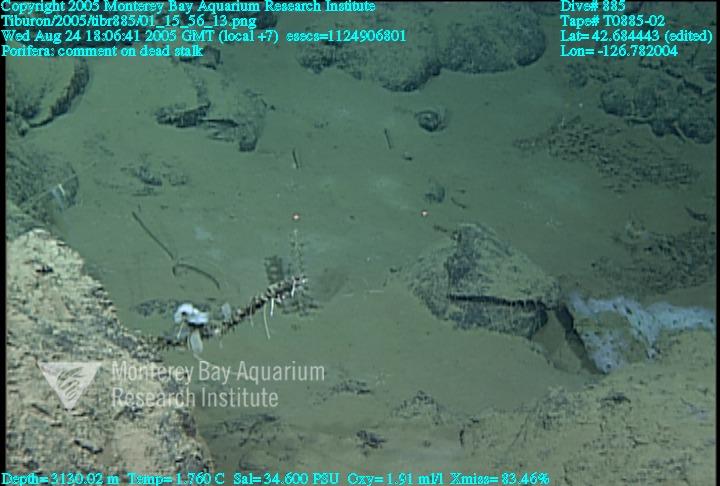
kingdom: Animalia
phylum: Porifera
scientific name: Porifera
